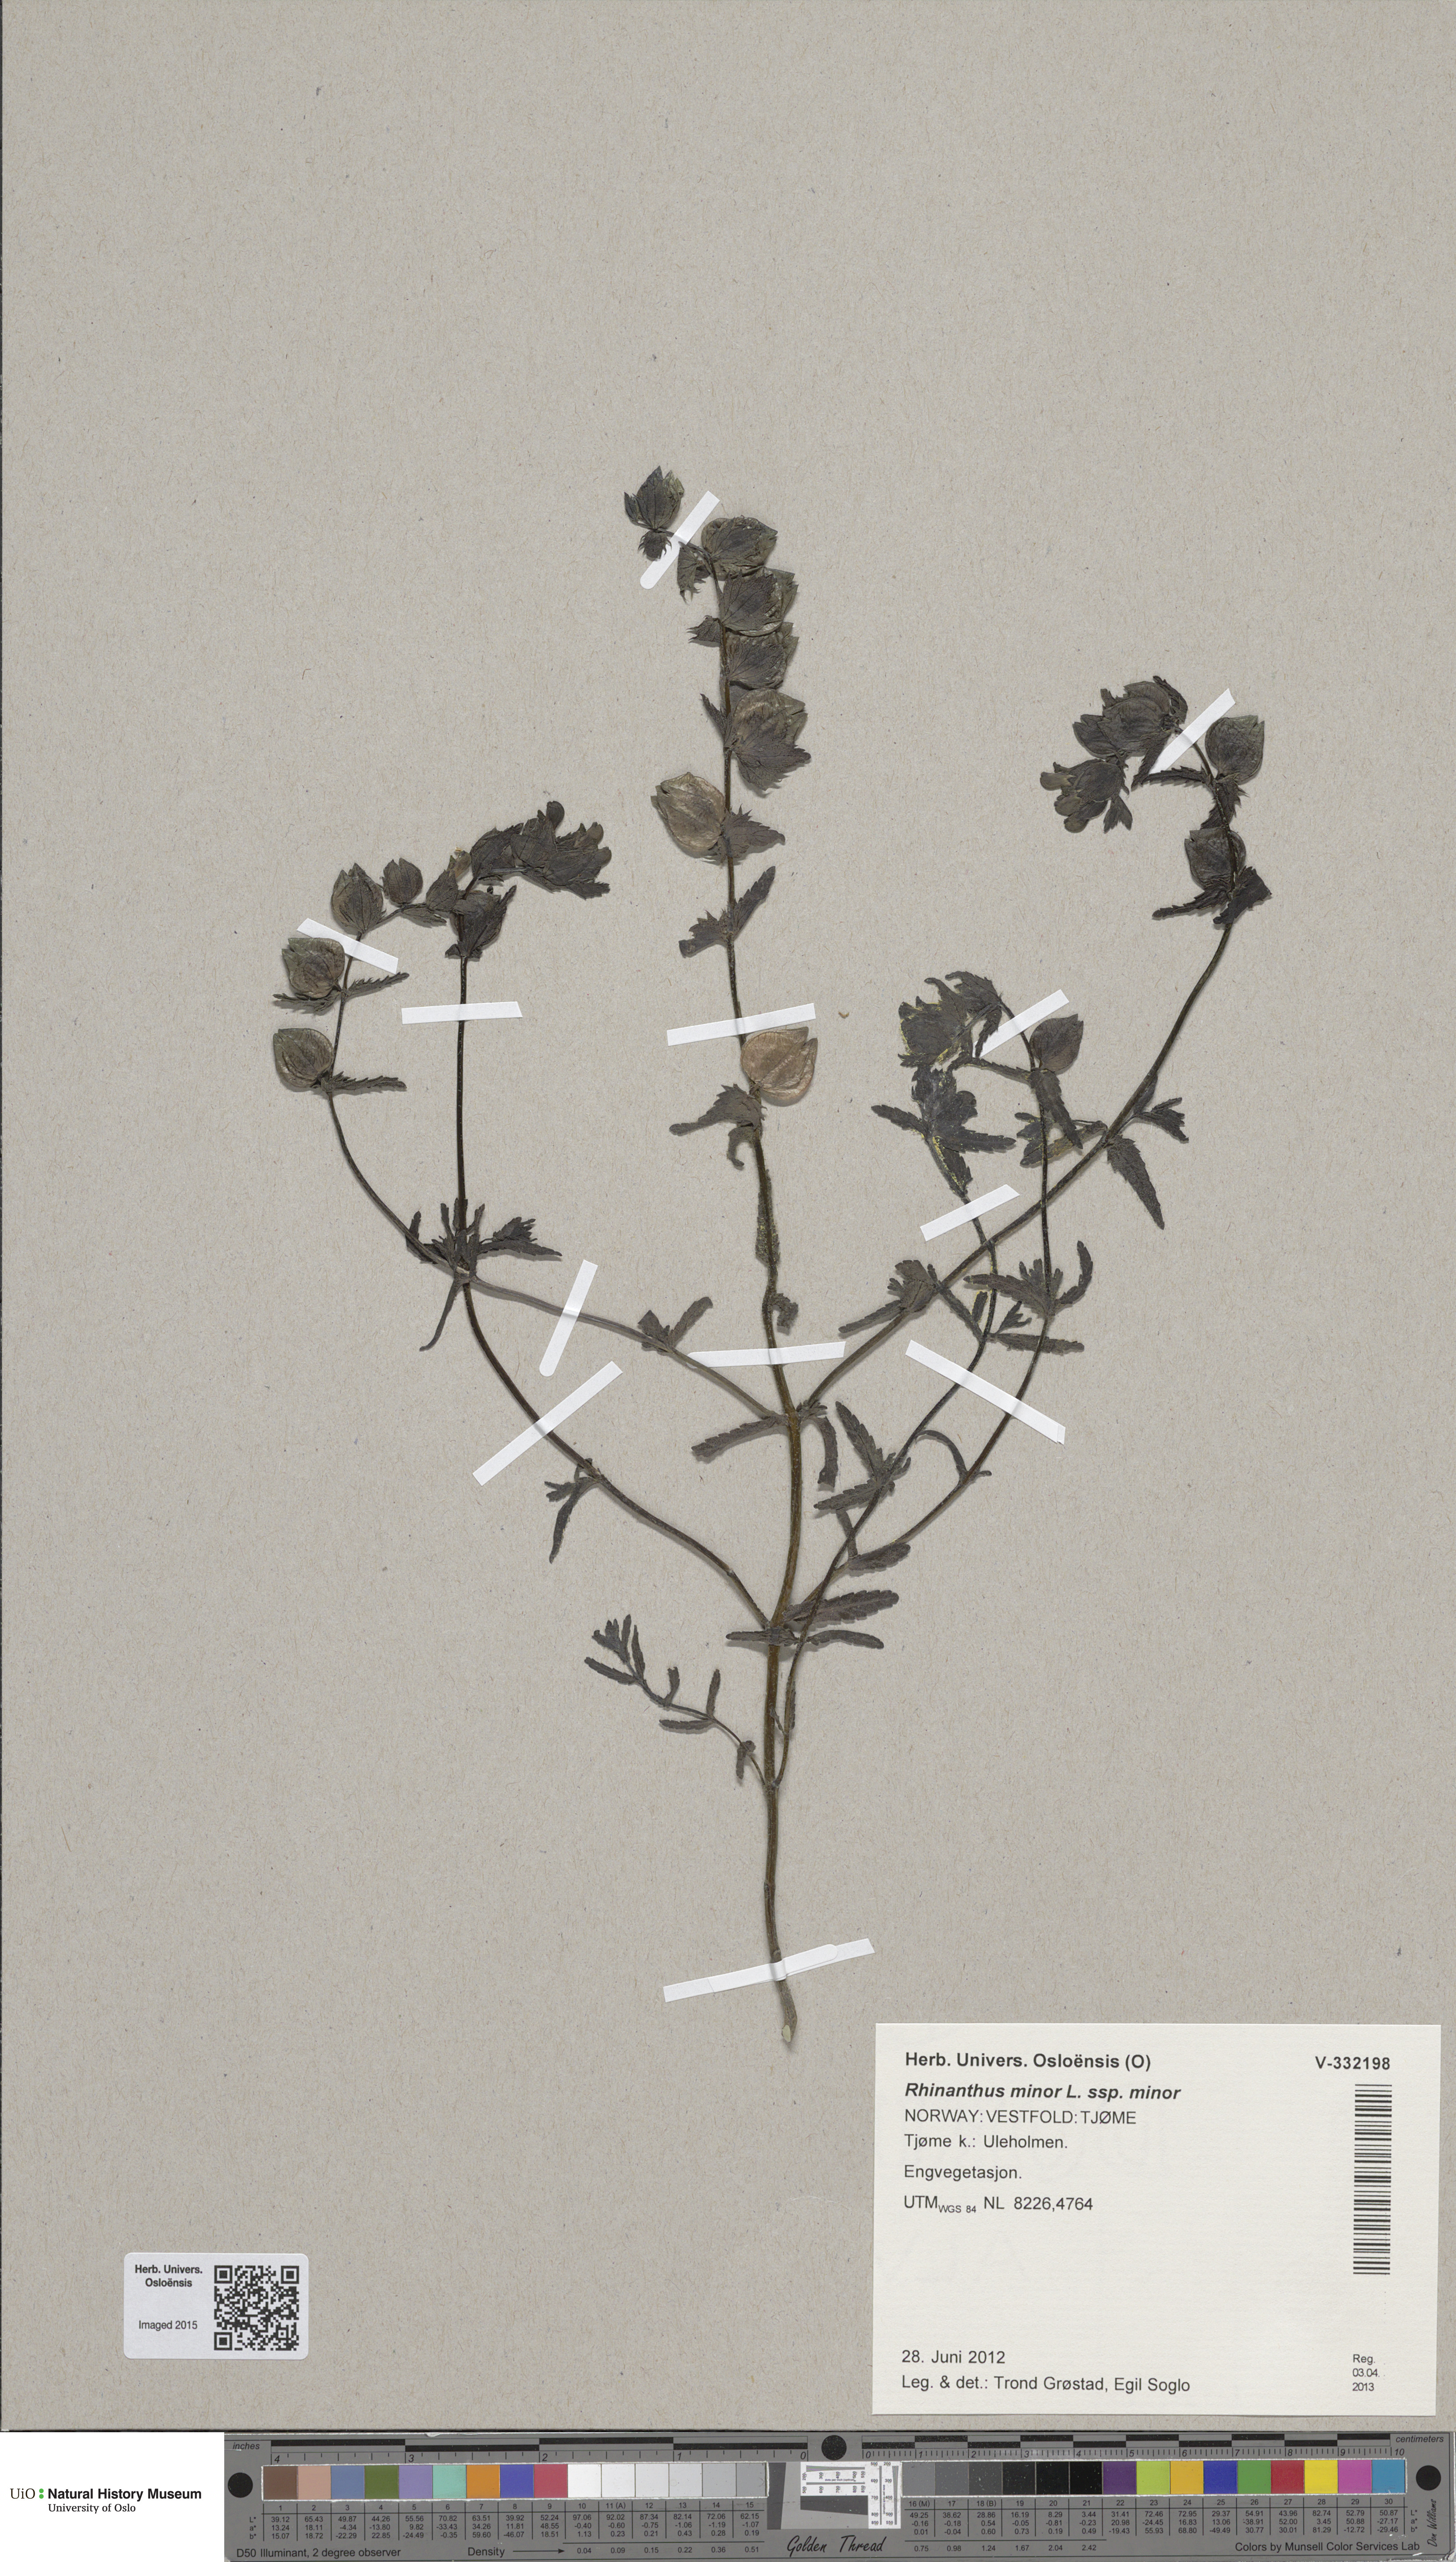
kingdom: Plantae
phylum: Tracheophyta
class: Magnoliopsida
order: Lamiales
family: Orobanchaceae
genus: Rhinanthus
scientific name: Rhinanthus minor
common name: Yellow-rattle
